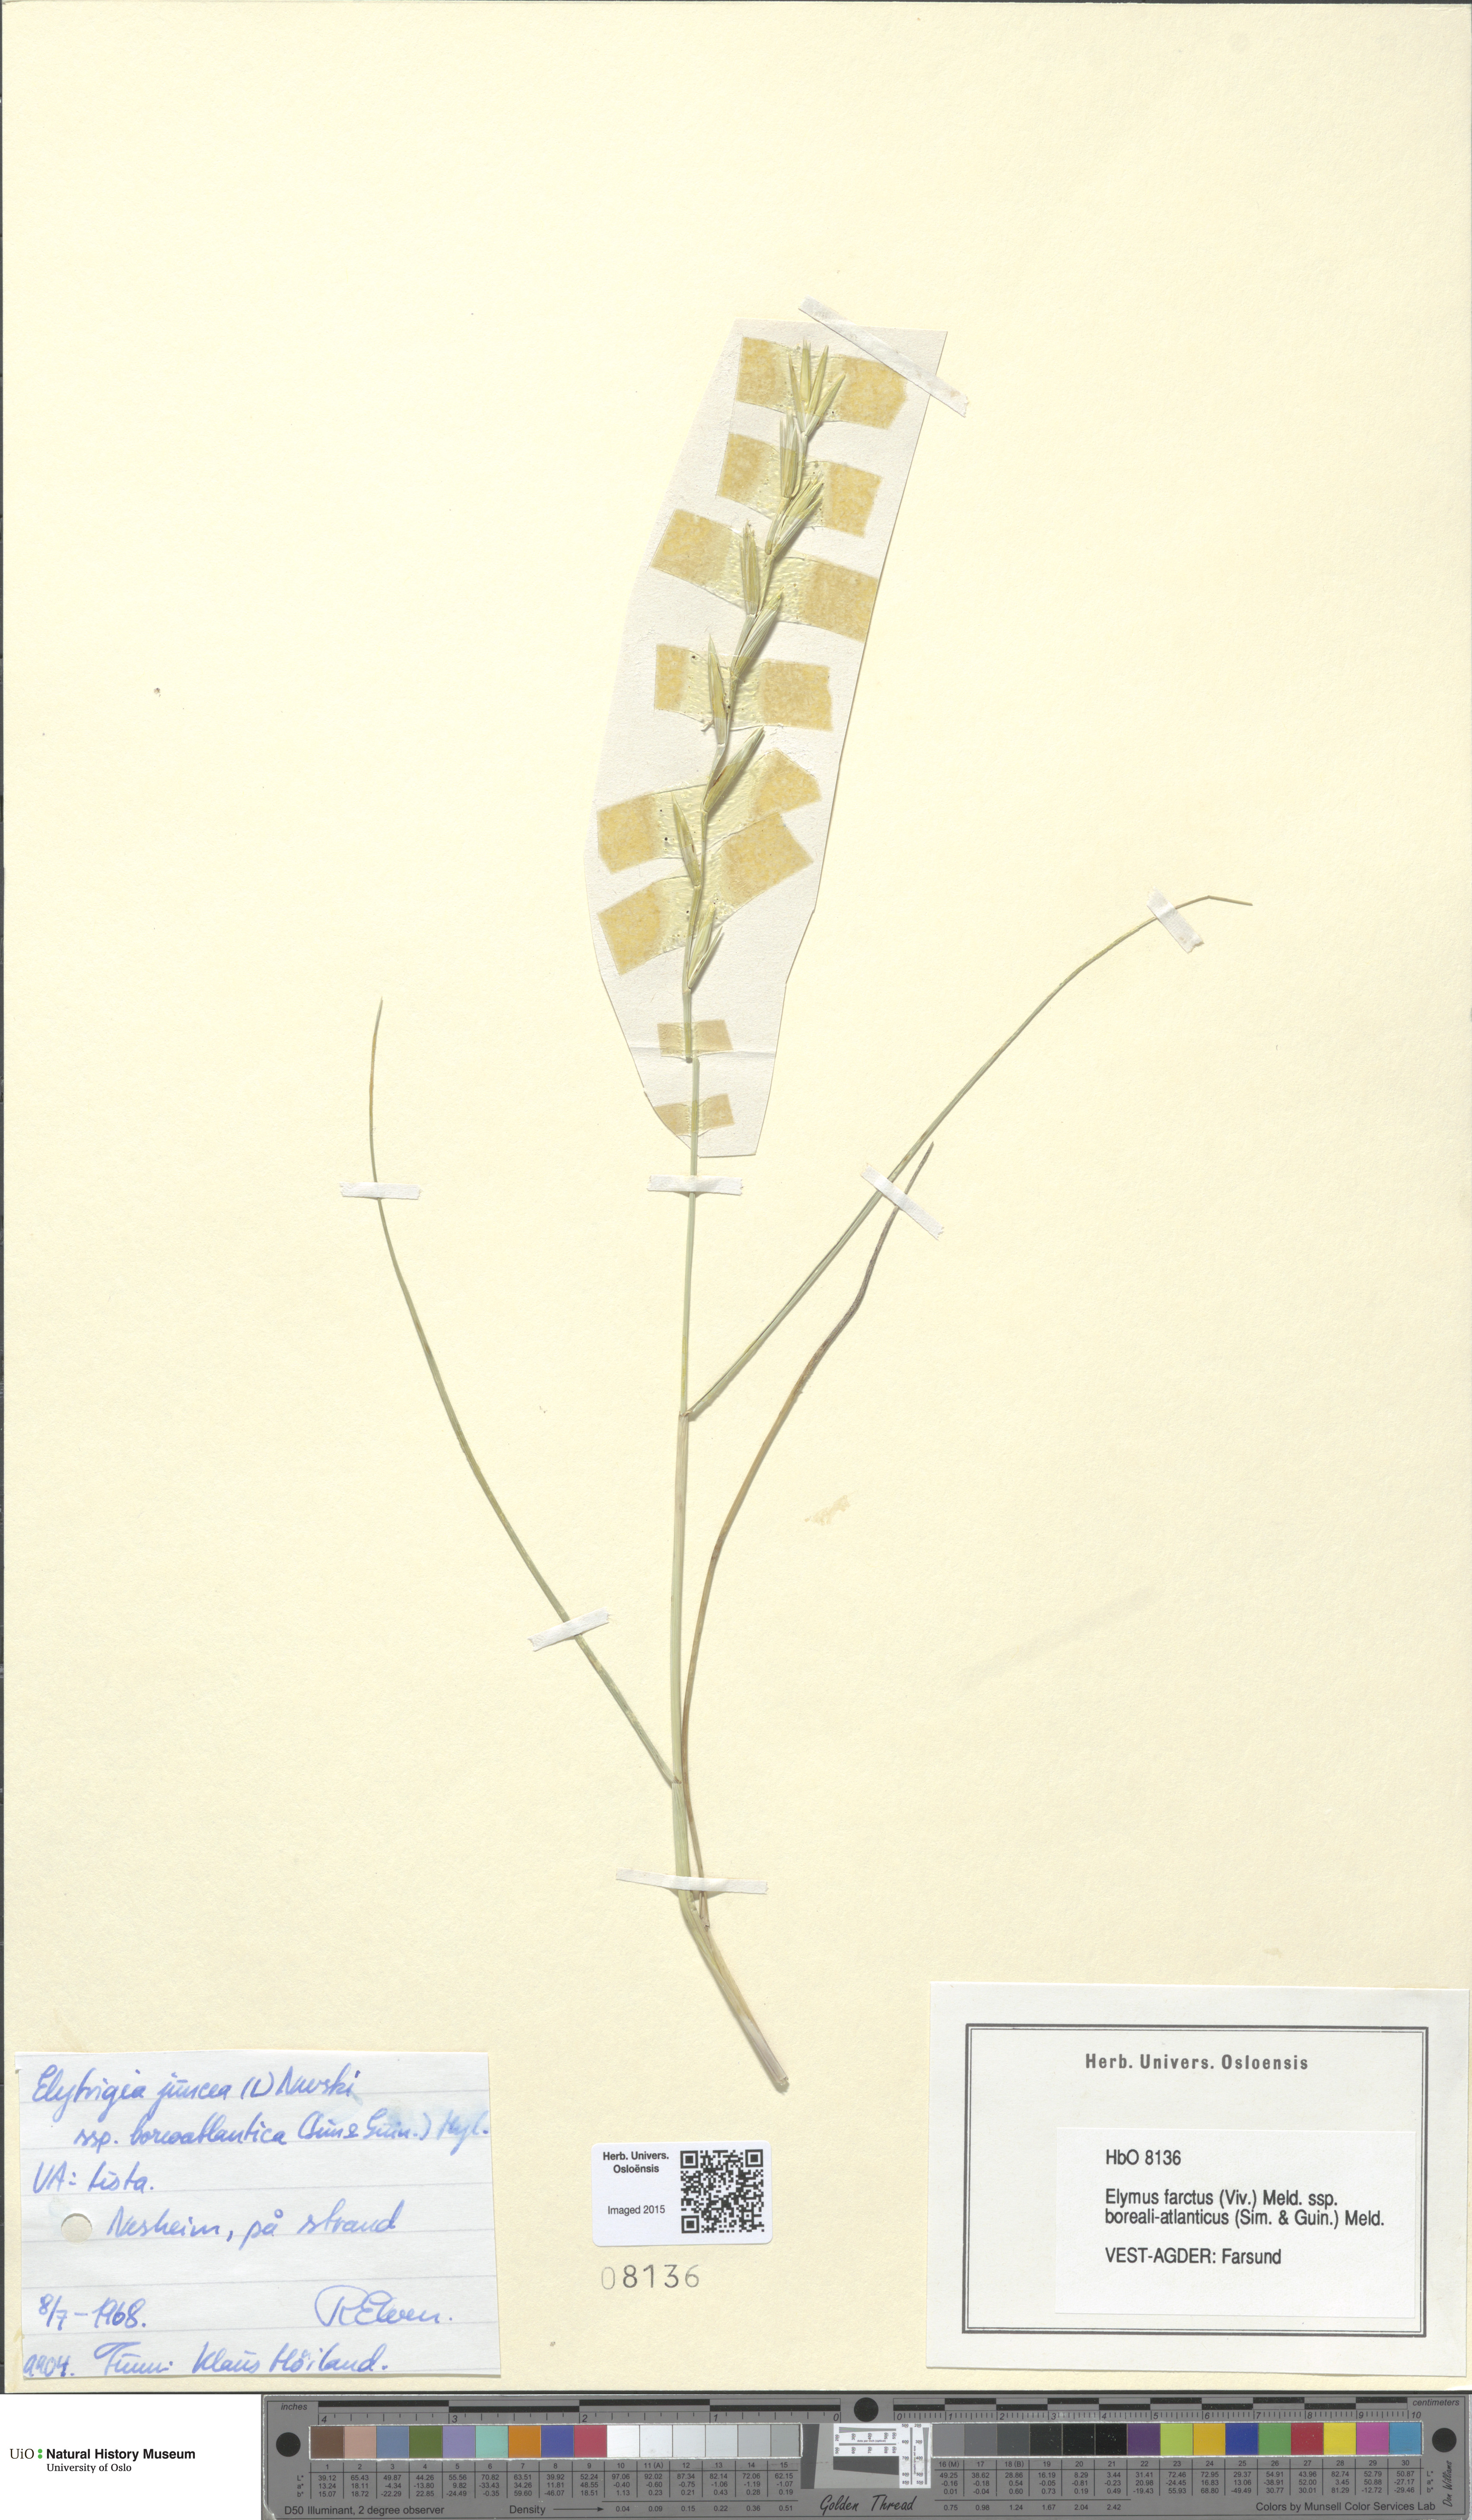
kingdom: Plantae
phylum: Tracheophyta
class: Liliopsida
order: Poales
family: Poaceae
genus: Thinopyrum
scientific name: Thinopyrum junceiforme
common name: Sea couch
